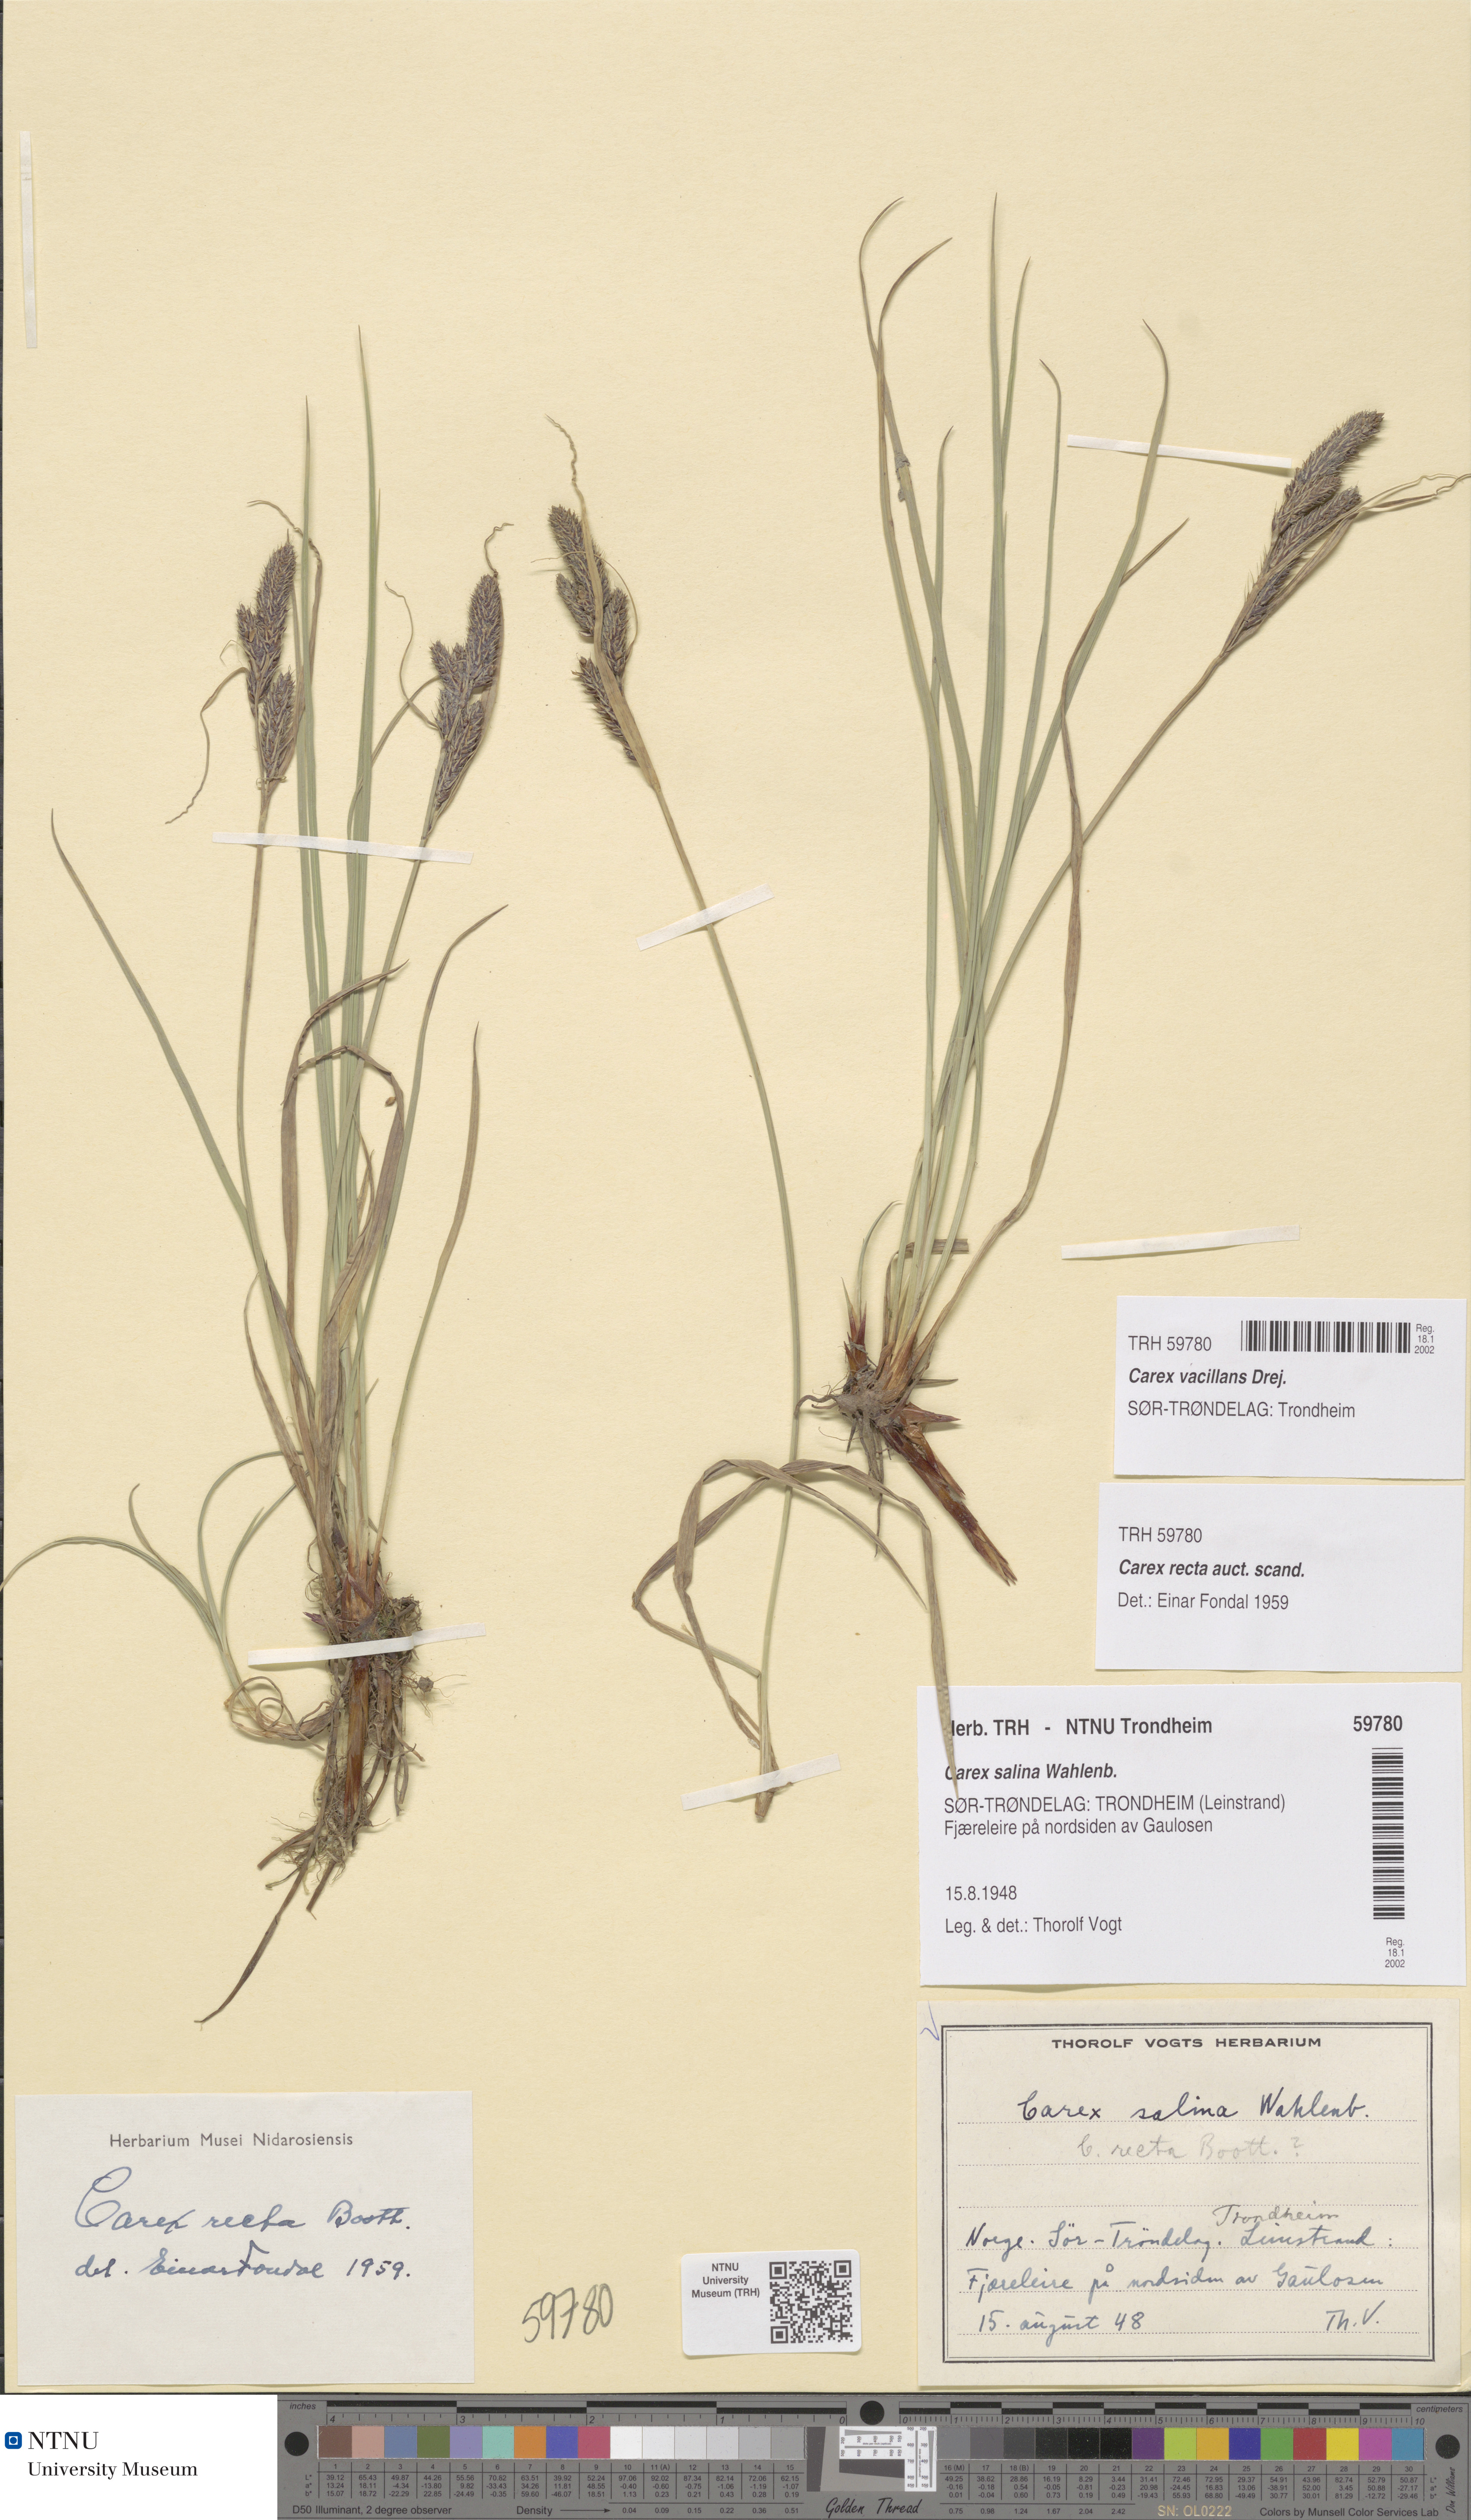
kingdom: Plantae
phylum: Tracheophyta
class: Liliopsida
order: Poales
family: Cyperaceae
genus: Carex
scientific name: Carex vacillans
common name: Sedge
